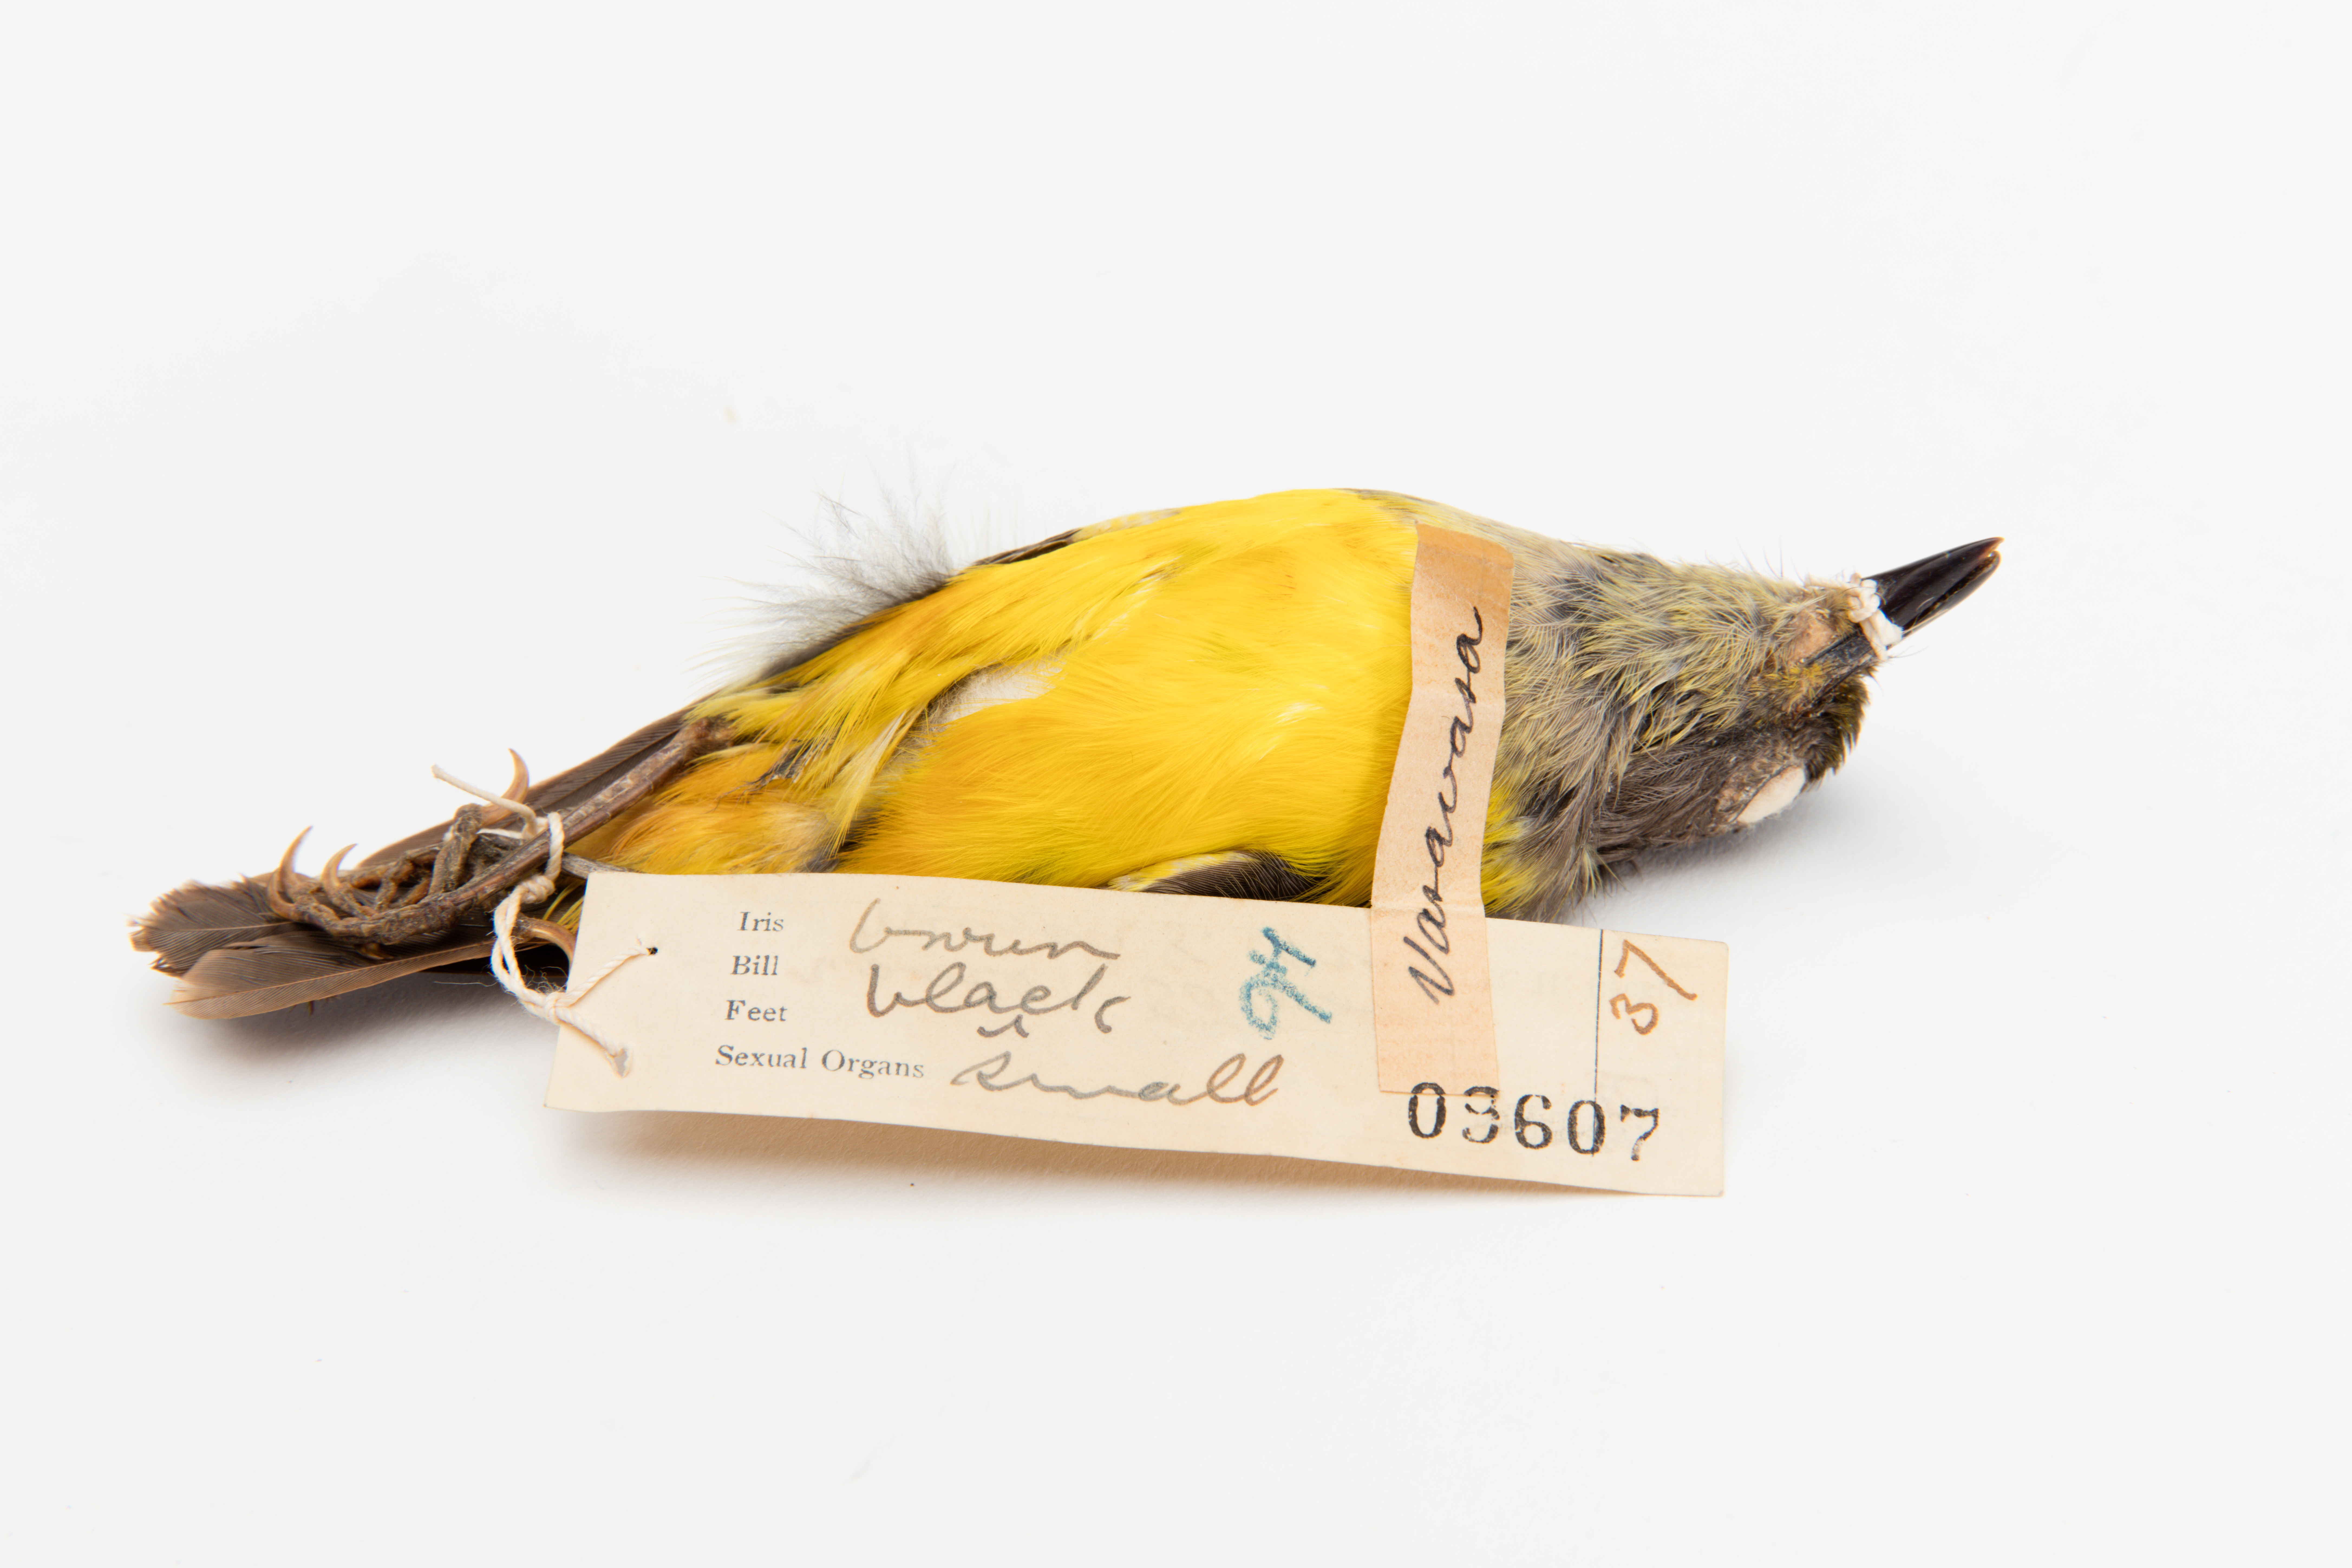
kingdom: Animalia
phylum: Chordata
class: Aves
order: Passeriformes
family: Pachycephalidae
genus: Pachycephala
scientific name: Pachycephala flavifrons
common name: Samoan whistler
